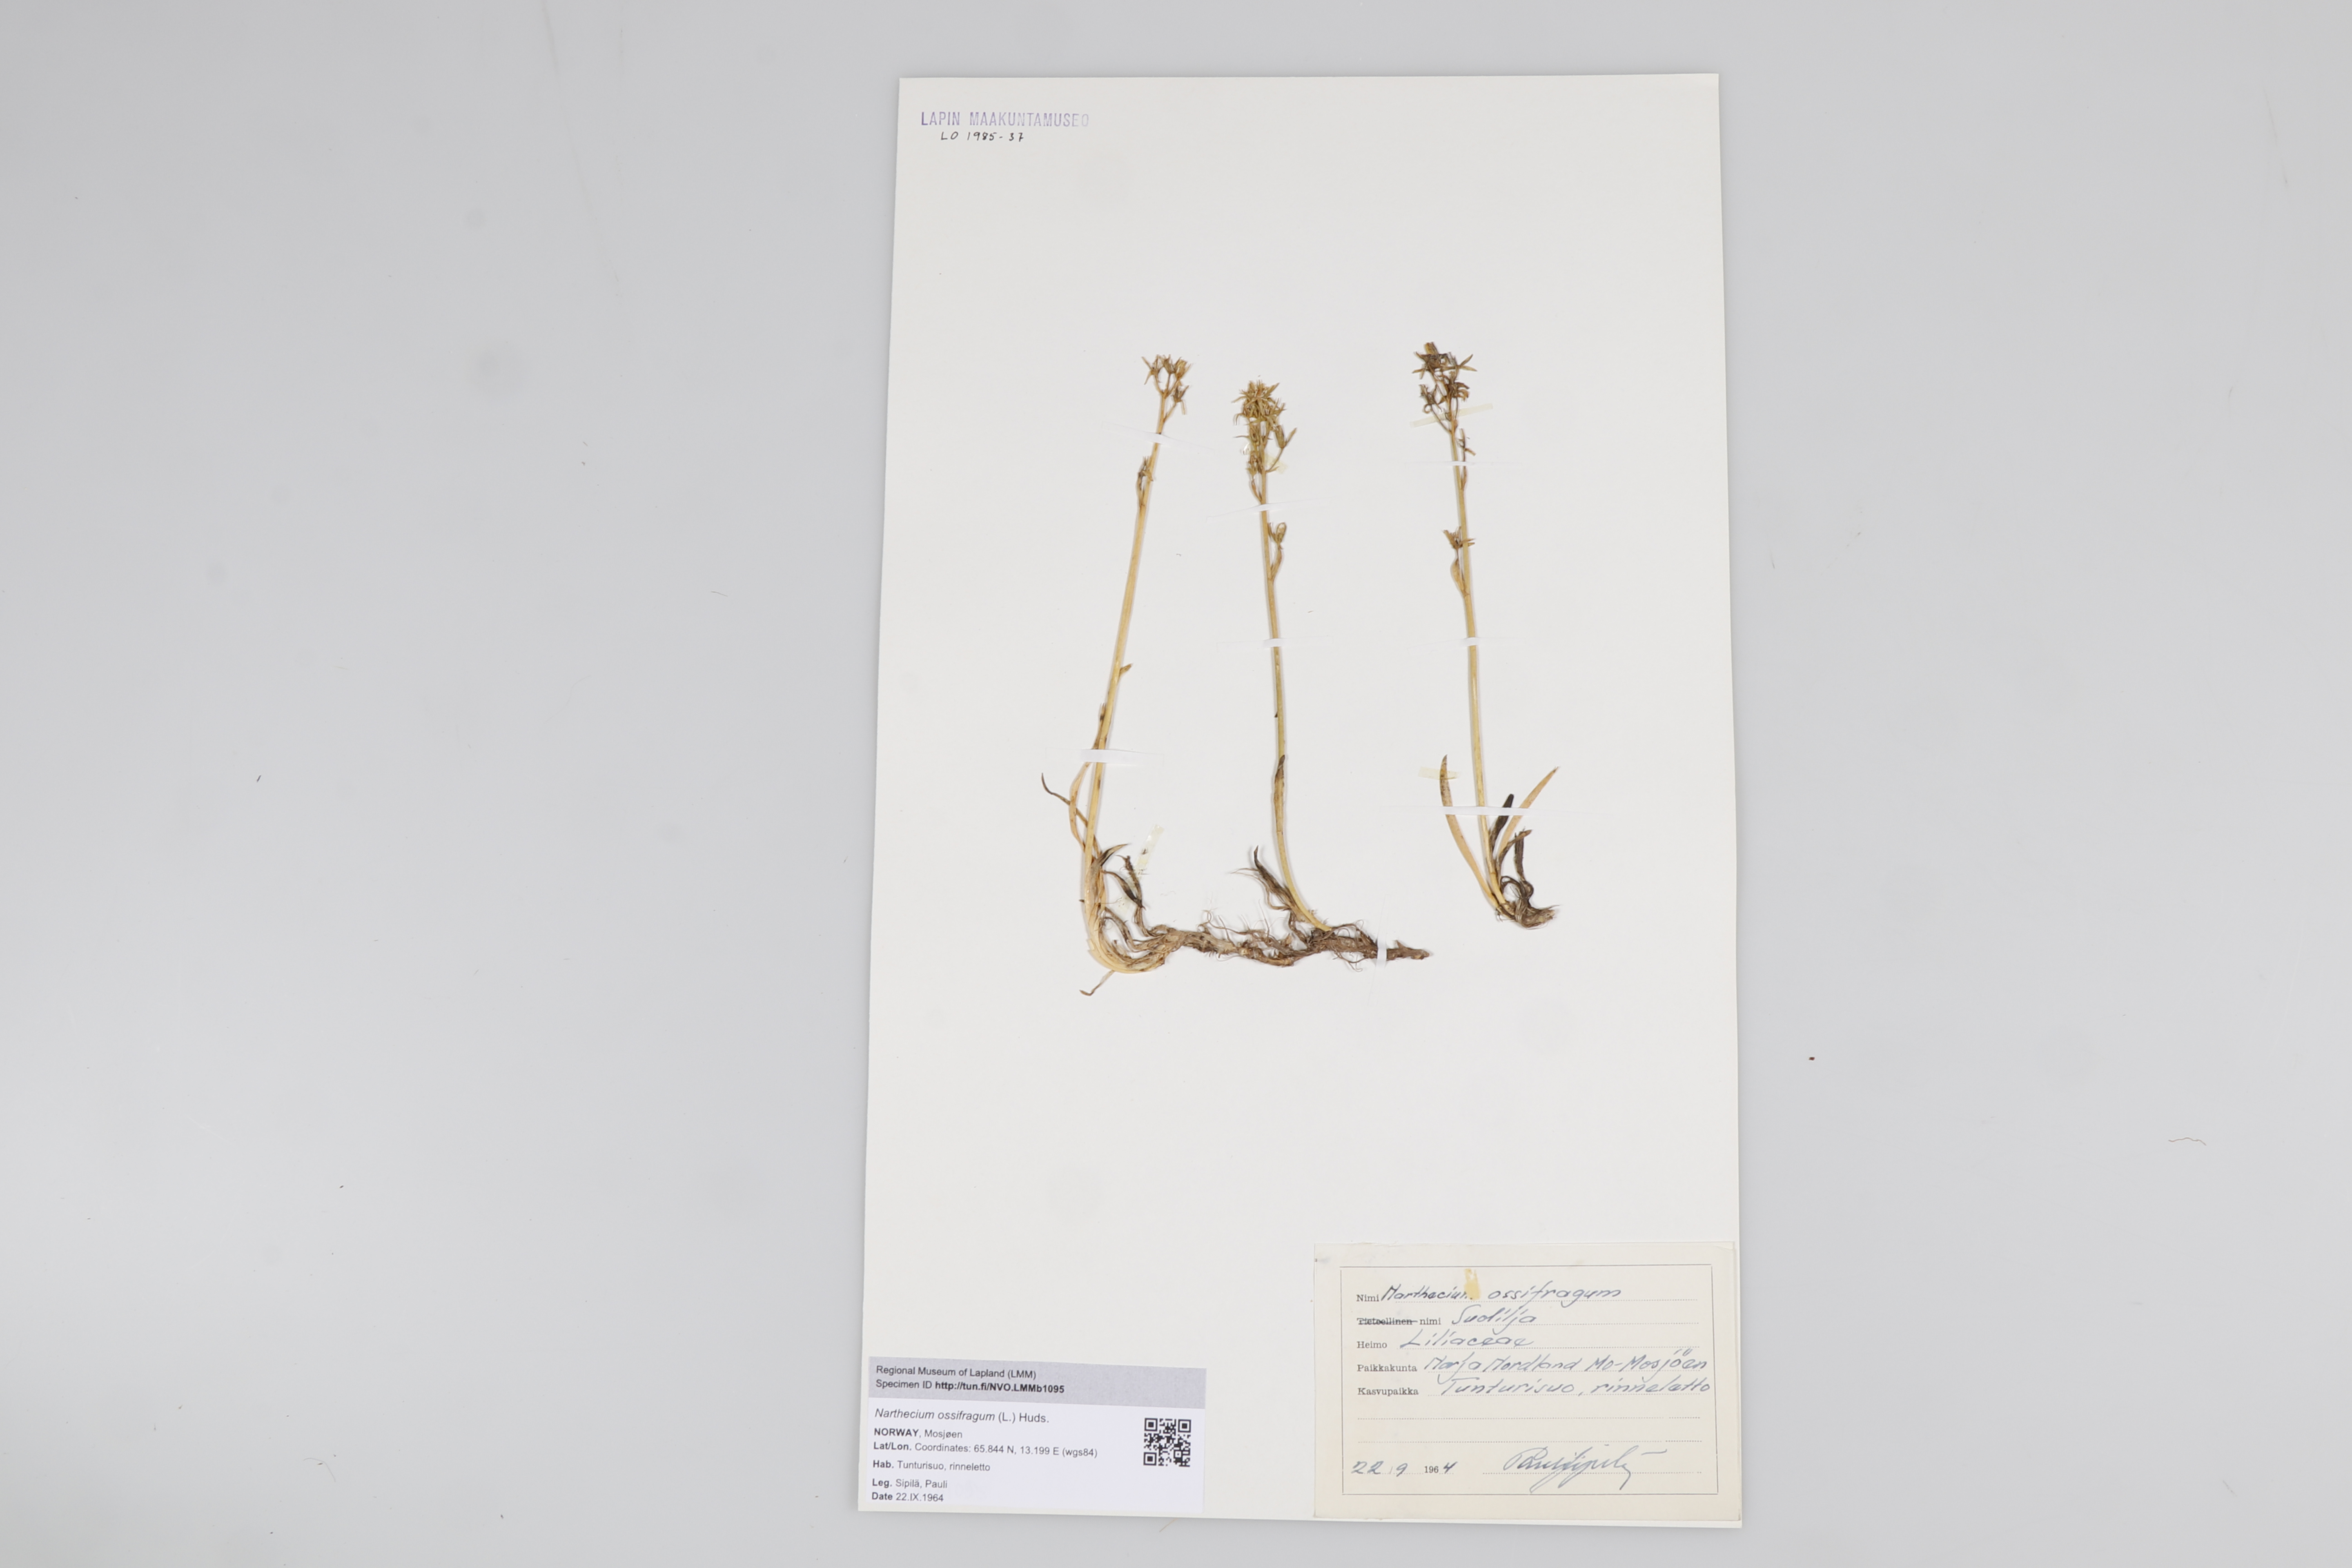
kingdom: Plantae
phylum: Tracheophyta
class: Liliopsida
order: Dioscoreales
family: Nartheciaceae
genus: Narthecium
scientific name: Narthecium ossifragum
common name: Bog asphodel
